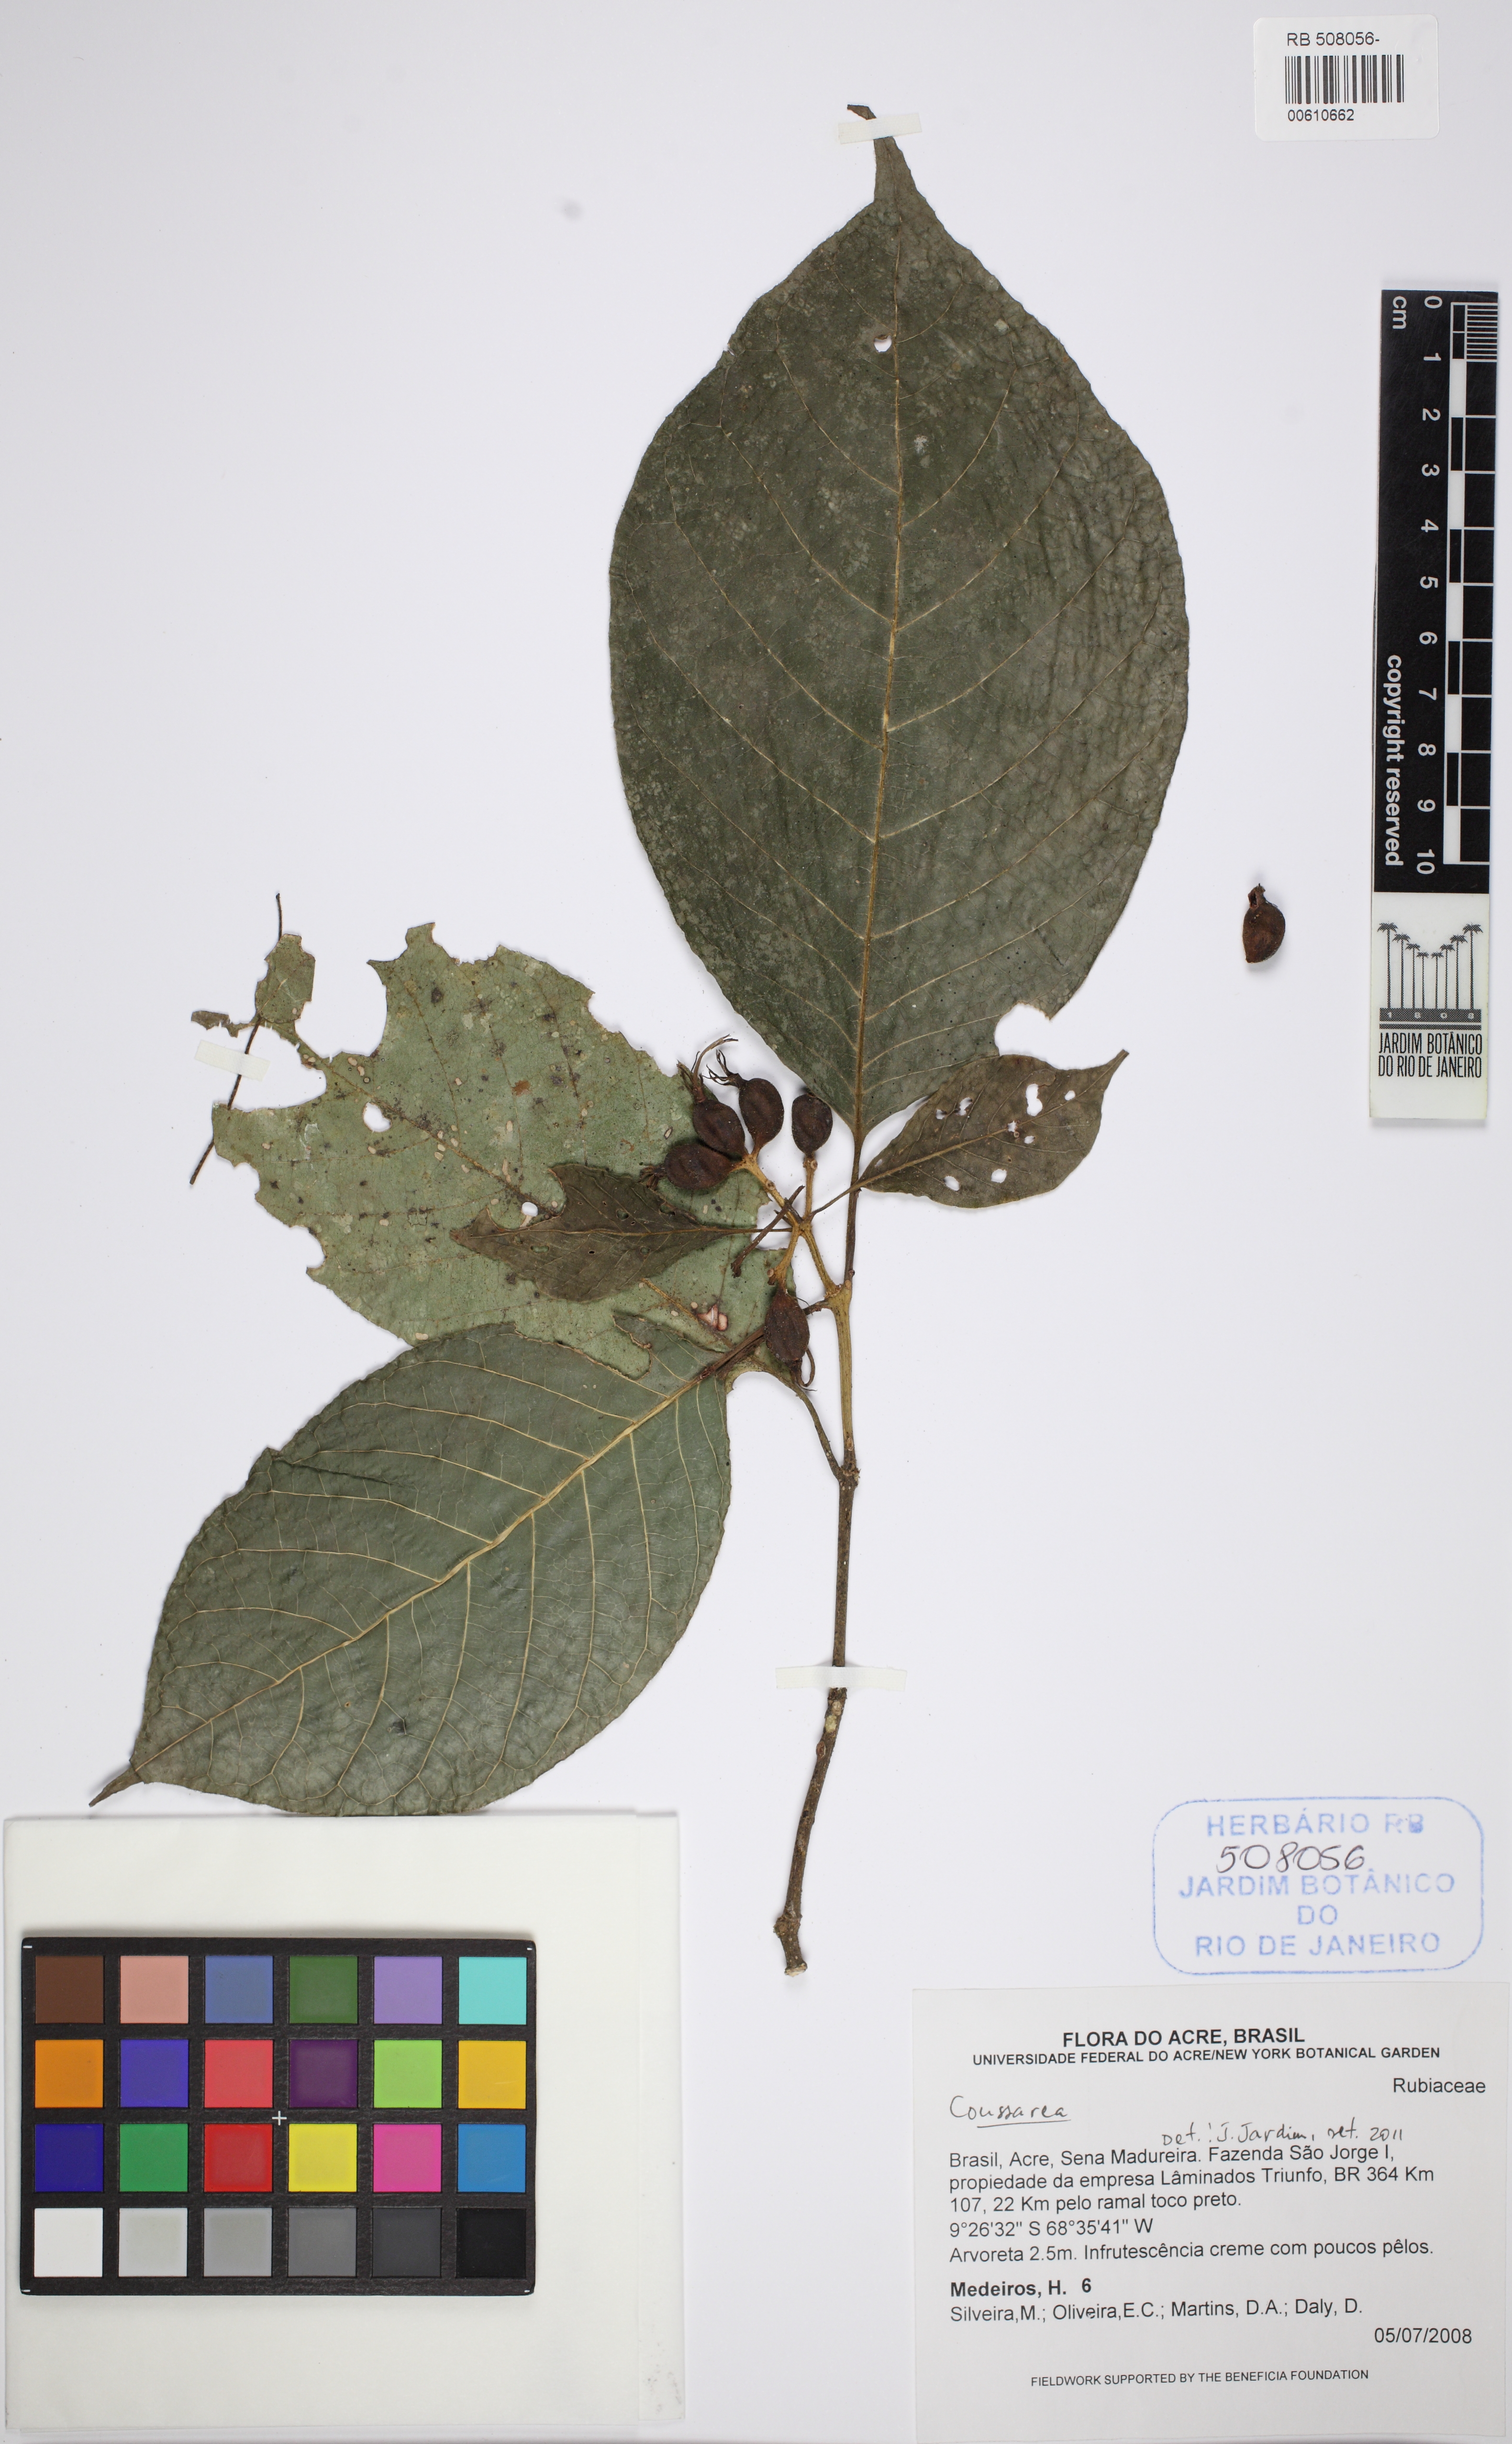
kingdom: Plantae
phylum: Tracheophyta
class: Magnoliopsida
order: Gentianales
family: Rubiaceae
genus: Coussarea
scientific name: Coussarea
